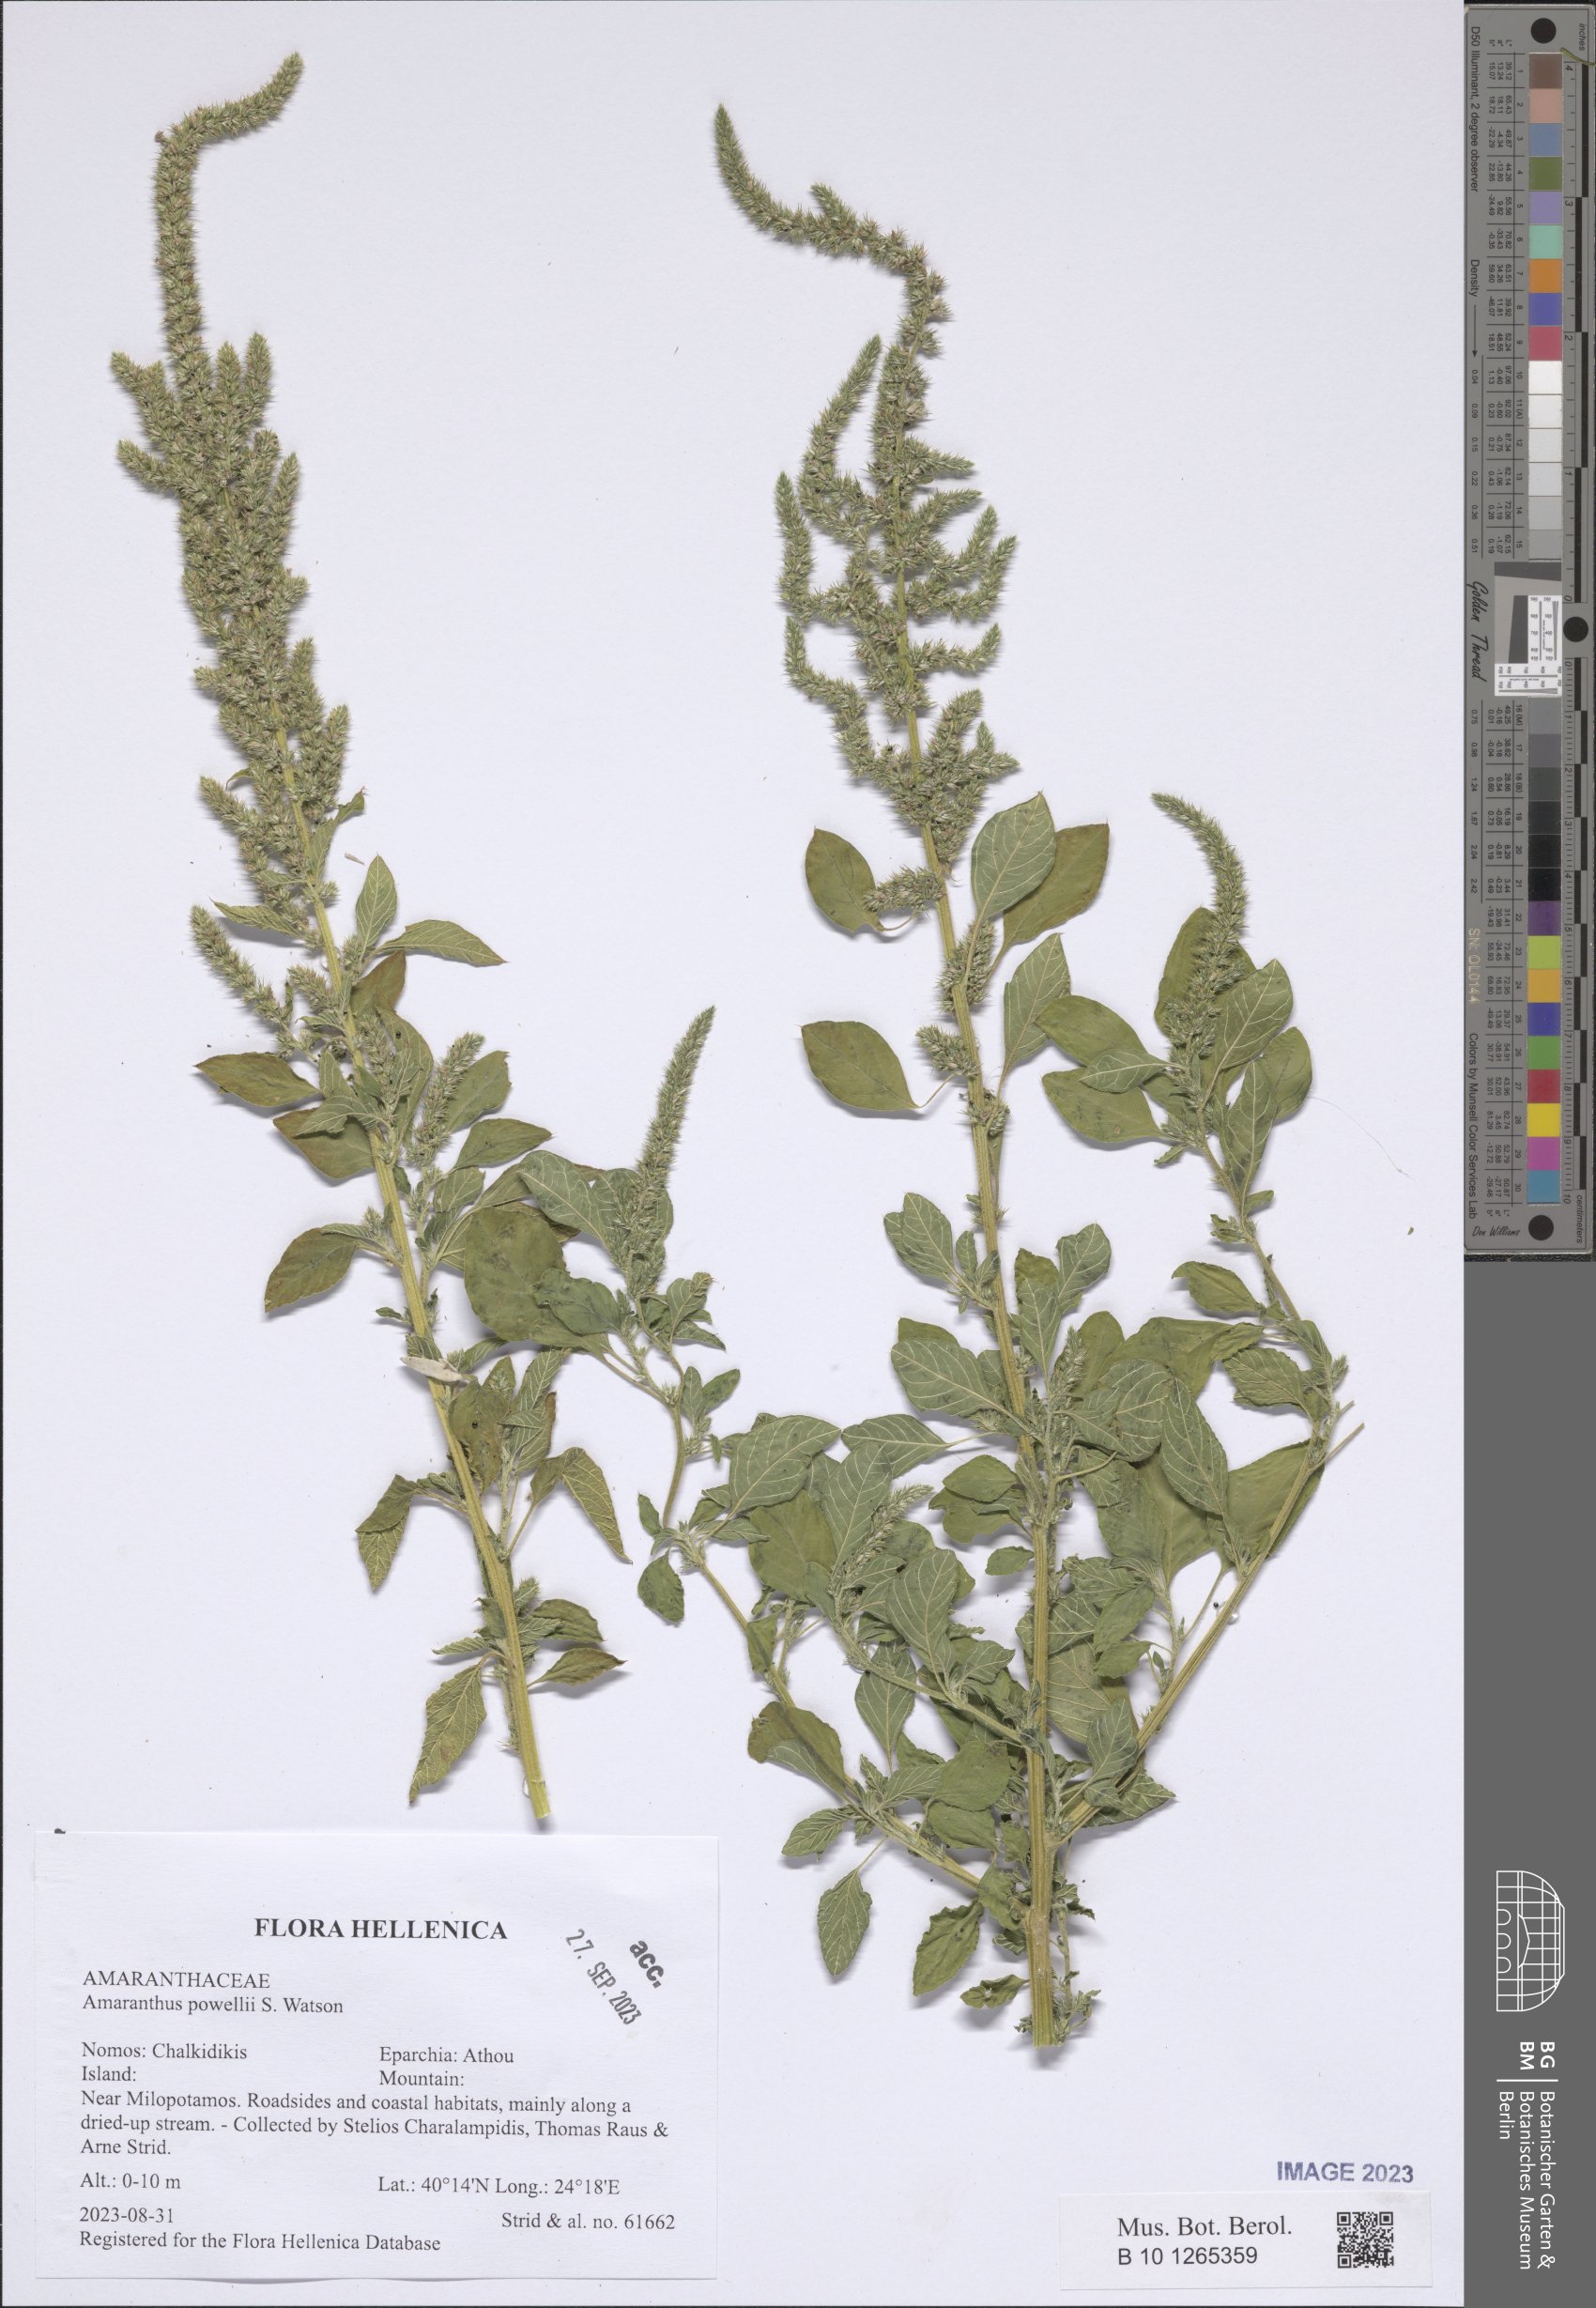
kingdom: Plantae
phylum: Tracheophyta
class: Magnoliopsida
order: Caryophyllales
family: Amaranthaceae
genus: Amaranthus
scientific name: Amaranthus powellii
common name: Powell's amaranth
